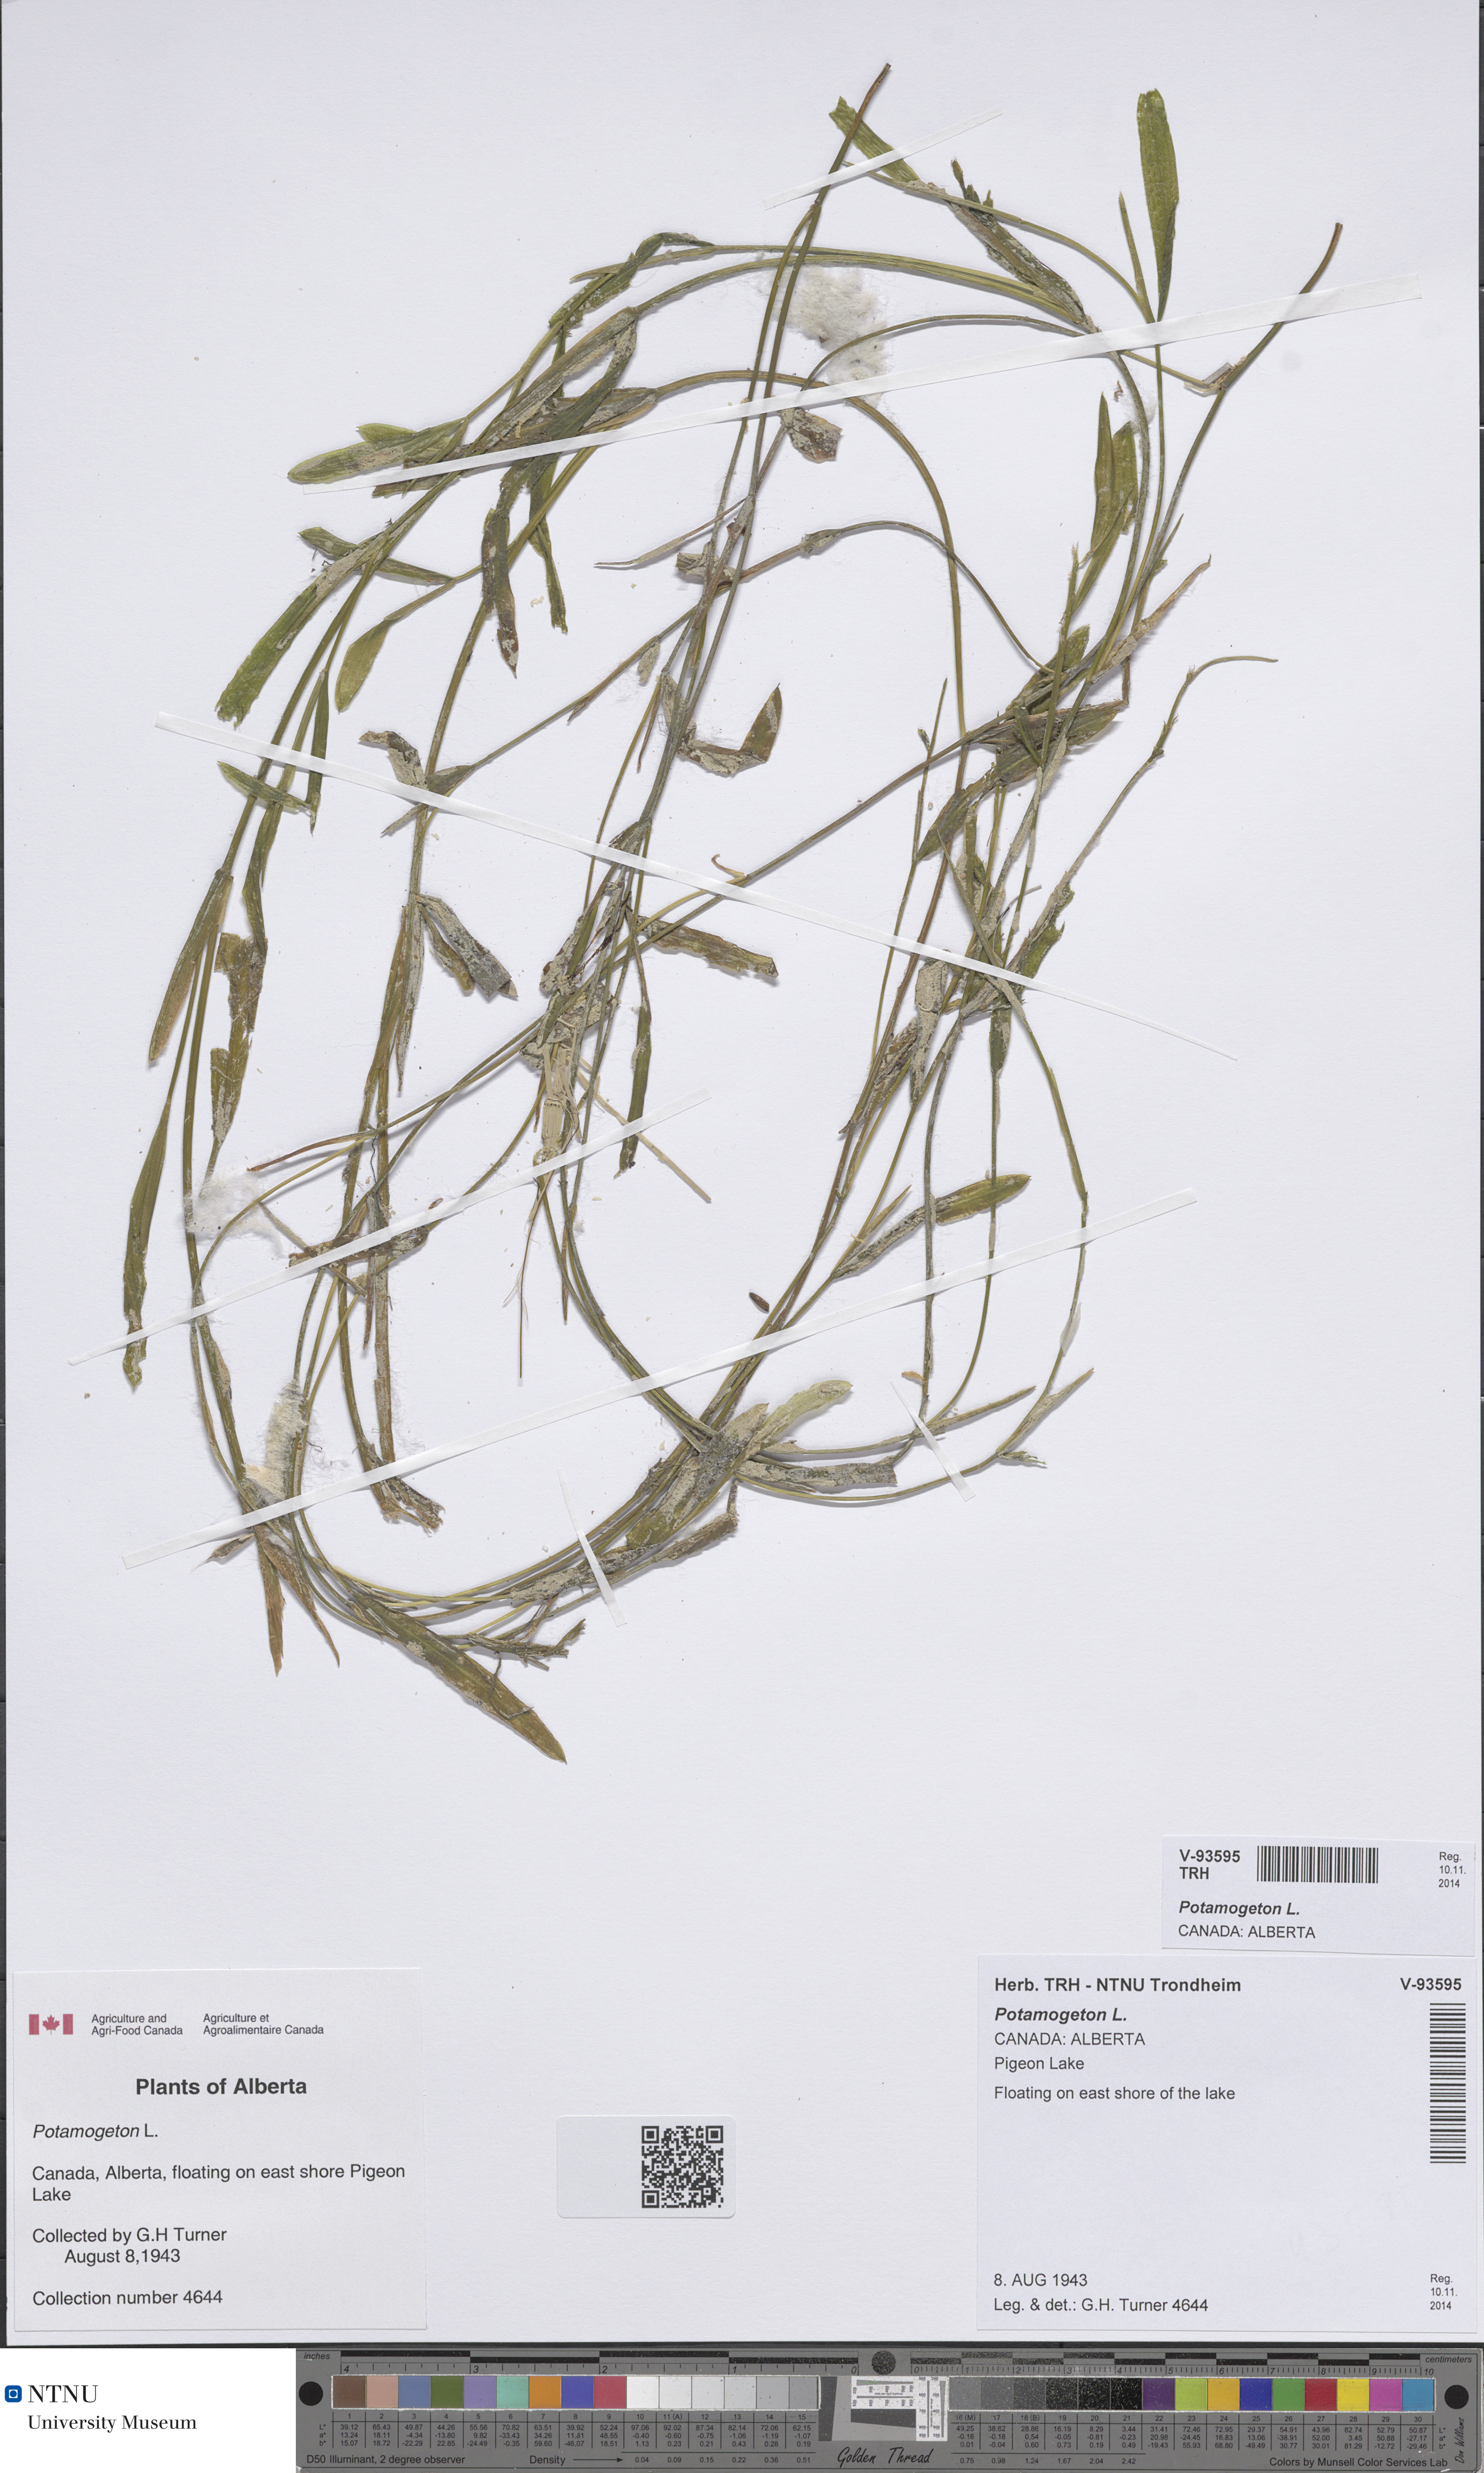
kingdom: Plantae
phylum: Tracheophyta
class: Liliopsida
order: Alismatales
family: Potamogetonaceae
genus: Potamogeton
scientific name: Potamogeton
